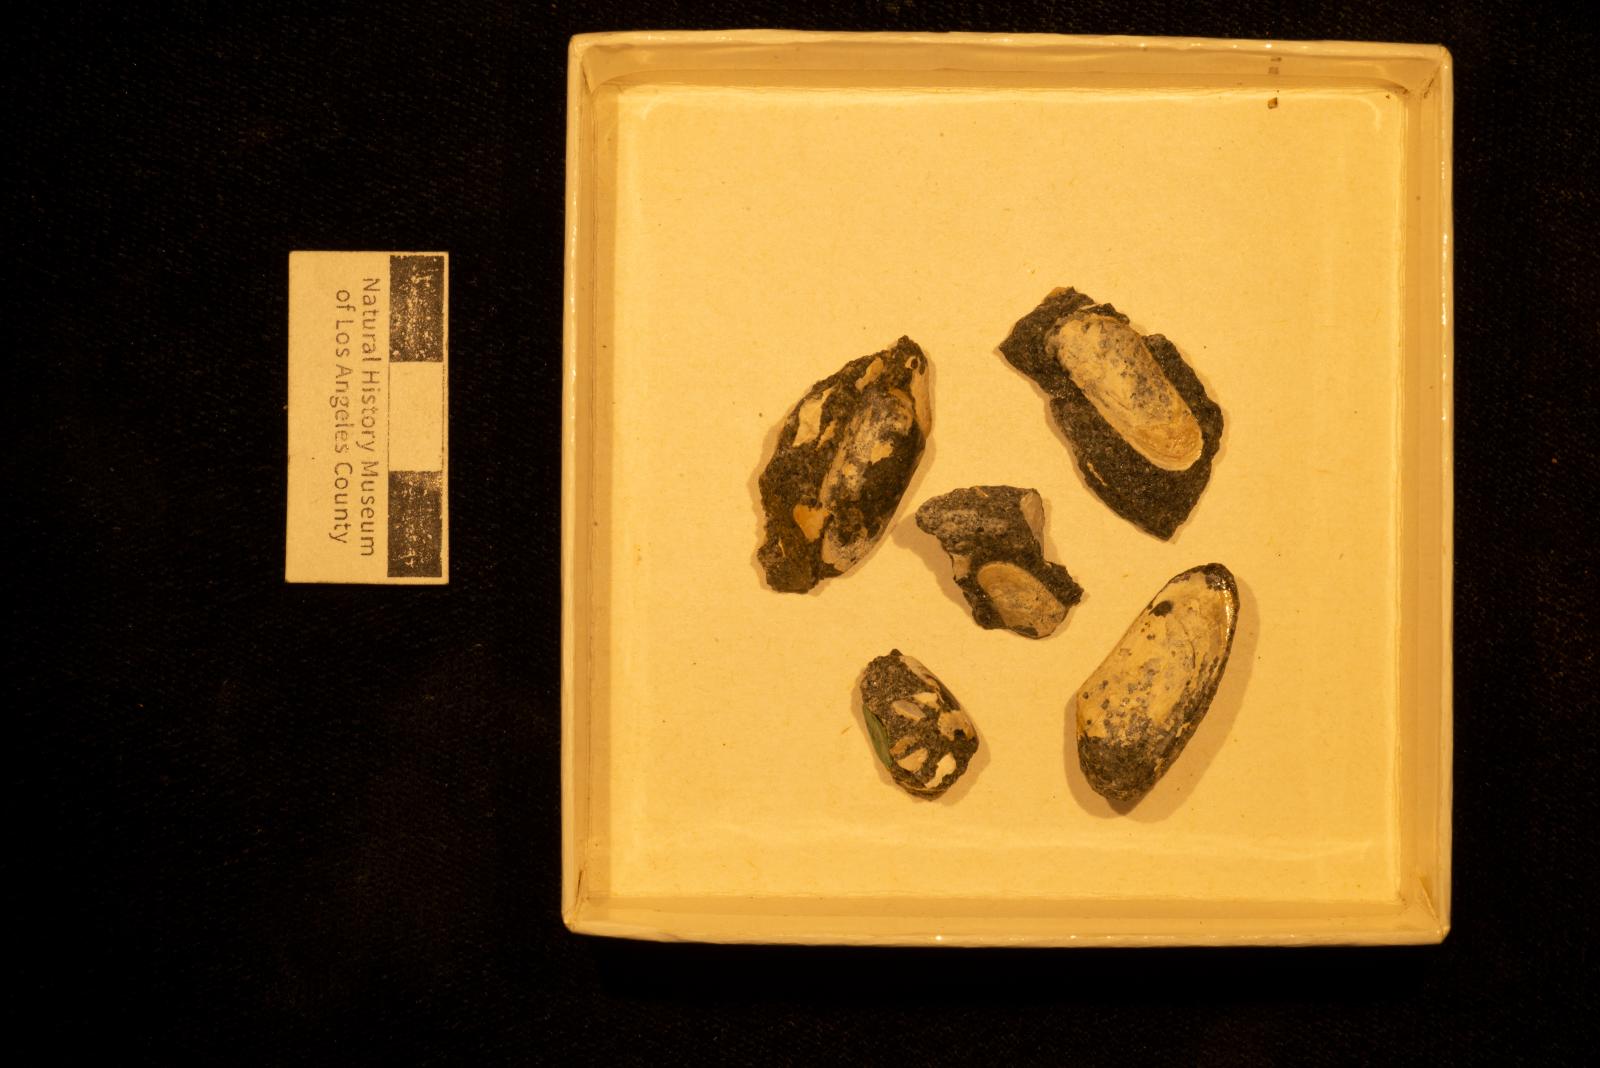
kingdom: Animalia
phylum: Mollusca
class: Bivalvia
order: Venerida
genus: Notodonax
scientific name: Notodonax hsui
